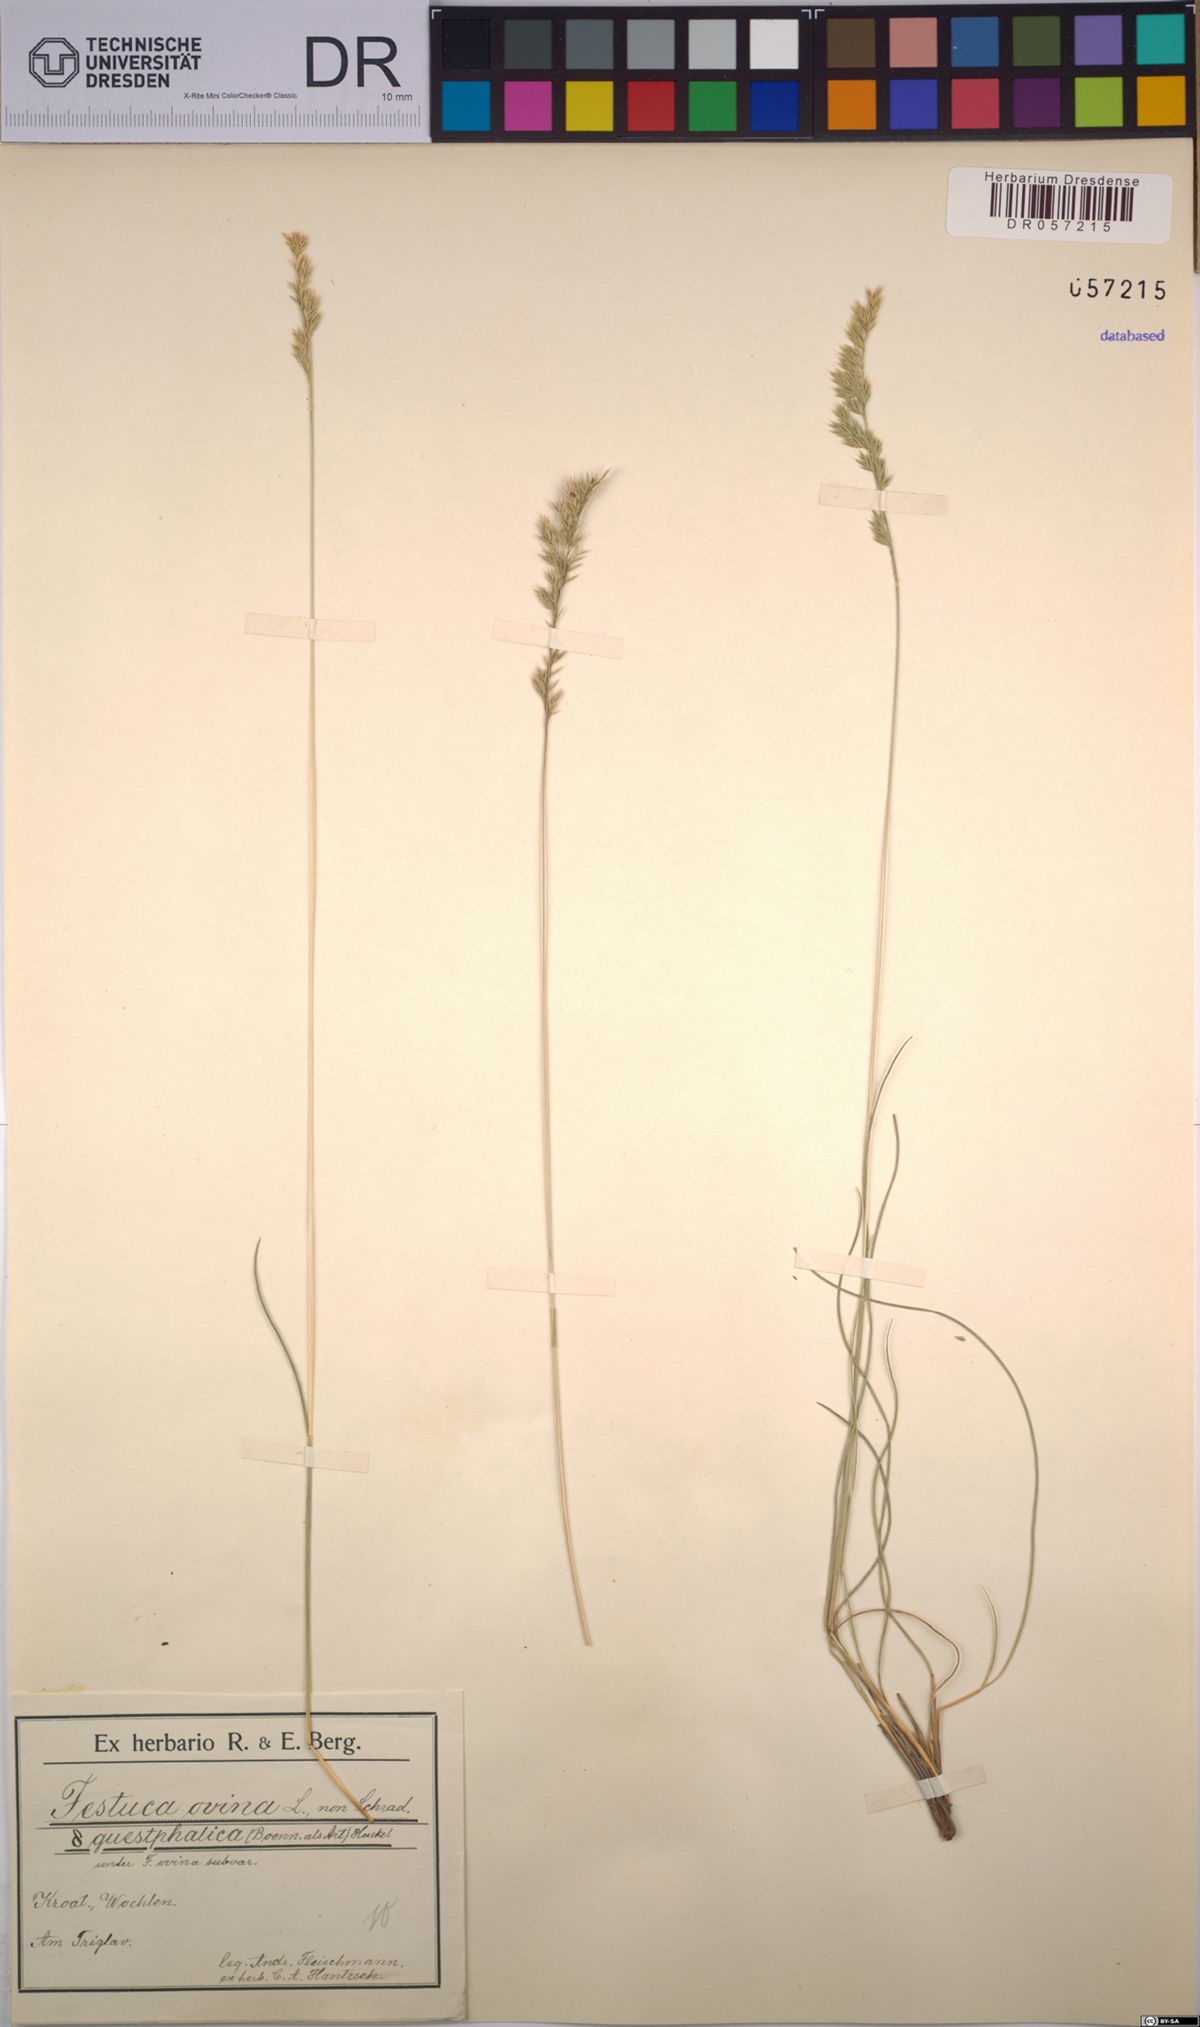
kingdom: Plantae
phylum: Tracheophyta
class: Liliopsida
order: Poales
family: Poaceae
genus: Festuca
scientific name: Festuca ovina
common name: Sheep fescue
